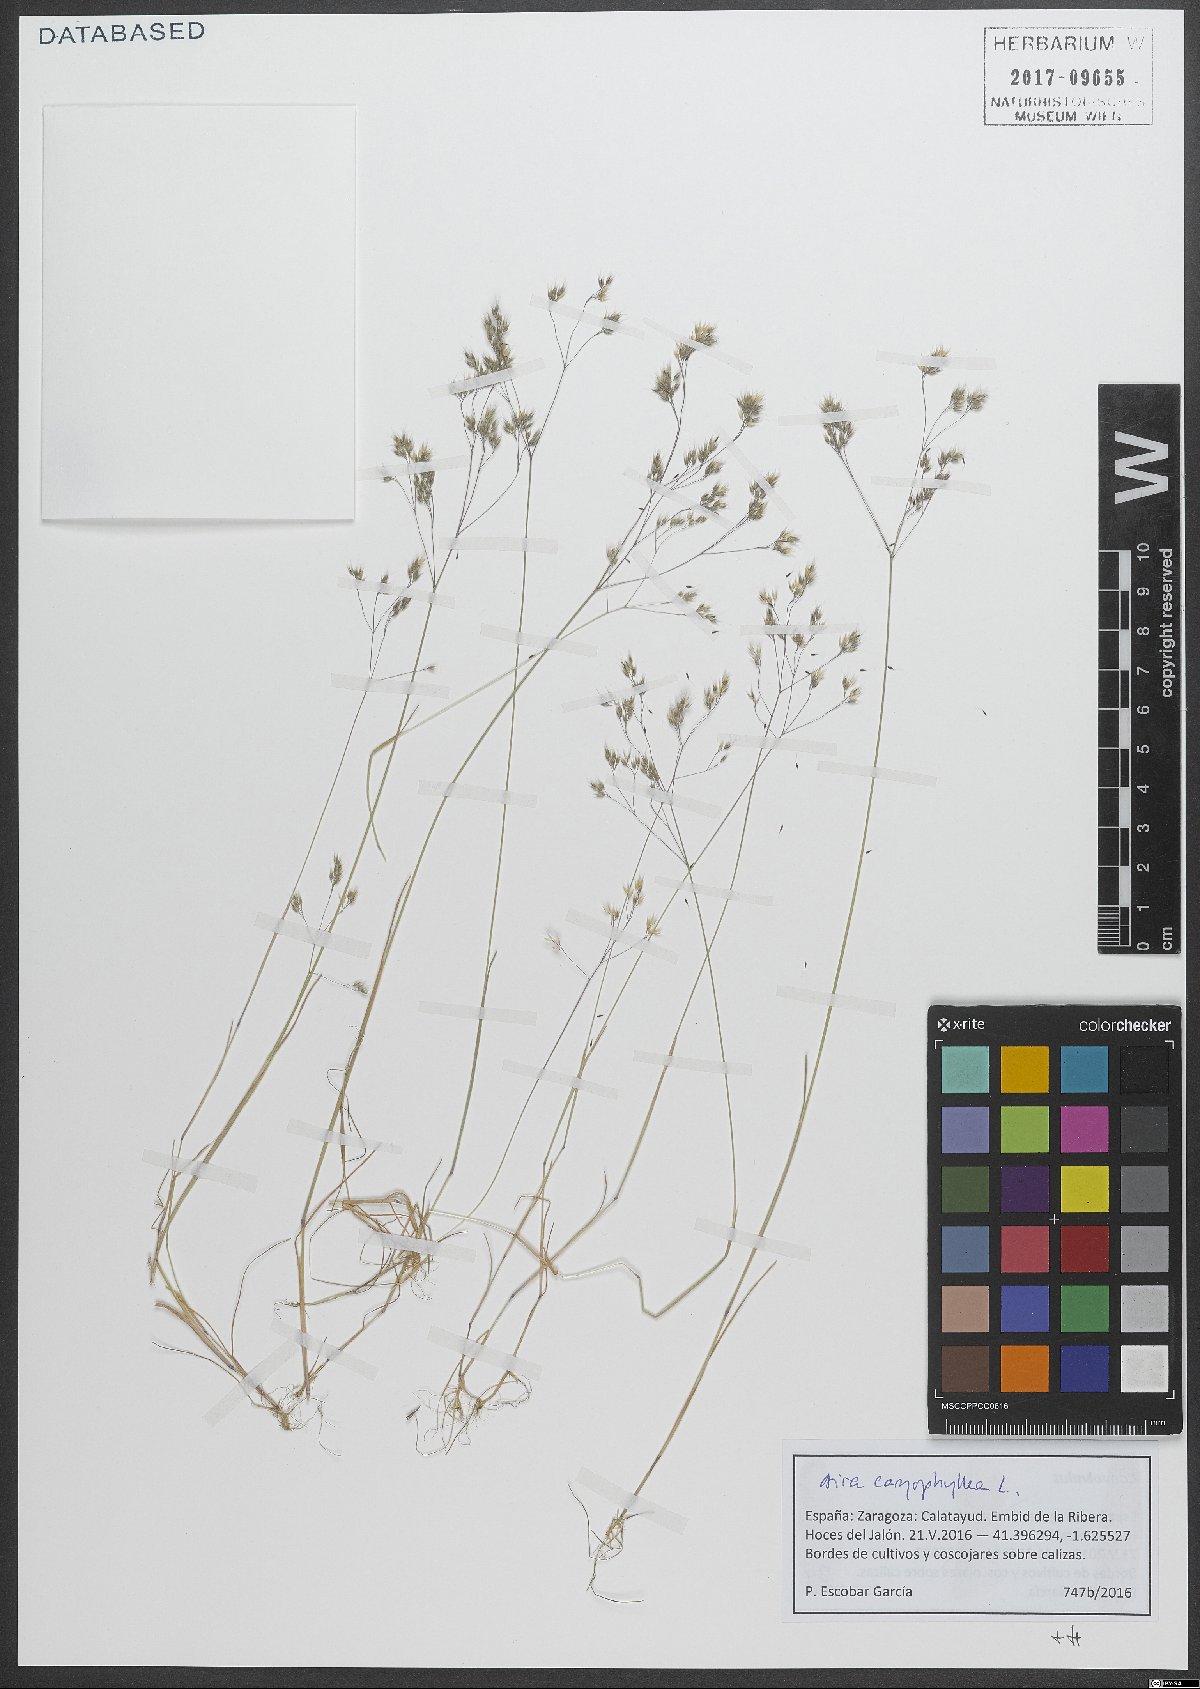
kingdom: Plantae
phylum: Tracheophyta
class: Liliopsida
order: Poales
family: Poaceae
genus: Aira
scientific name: Aira caryophyllea
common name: Silver hairgrass
